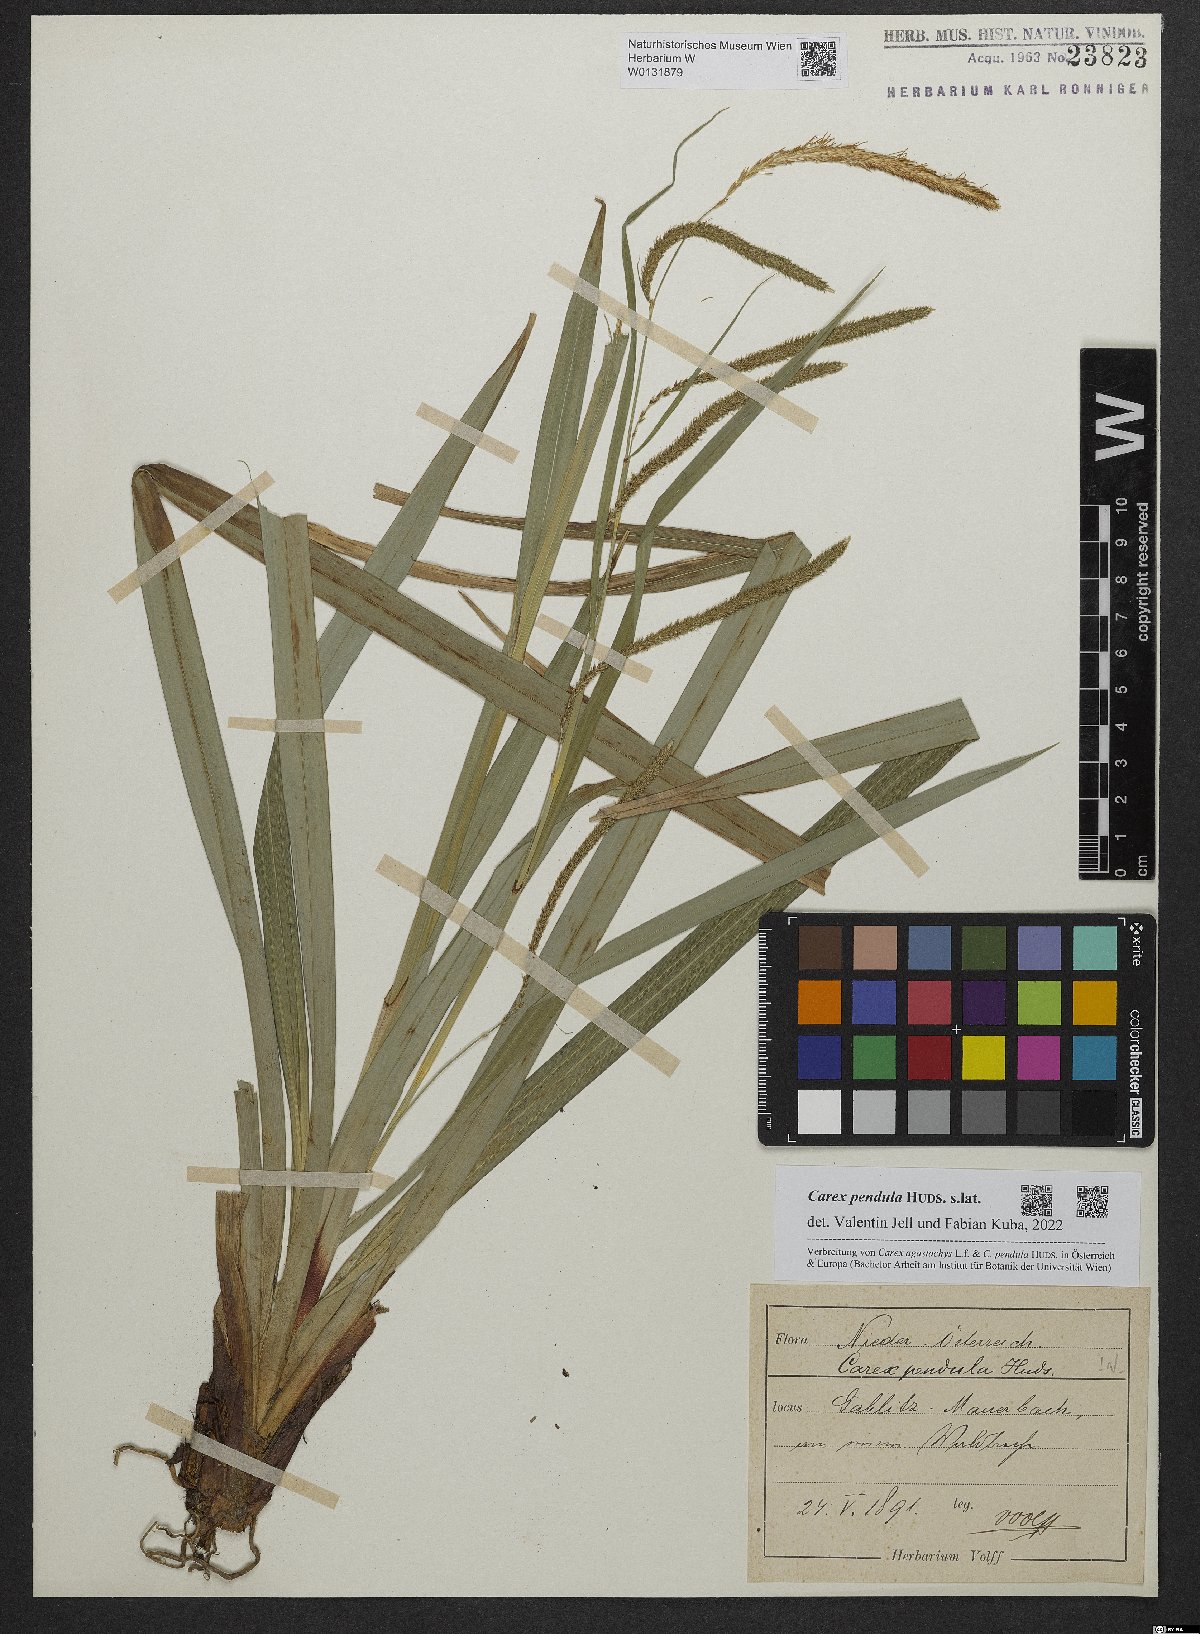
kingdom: Plantae
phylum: Tracheophyta
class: Liliopsida
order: Poales
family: Cyperaceae
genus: Carex
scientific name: Carex pendula
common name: Pendulous sedge
